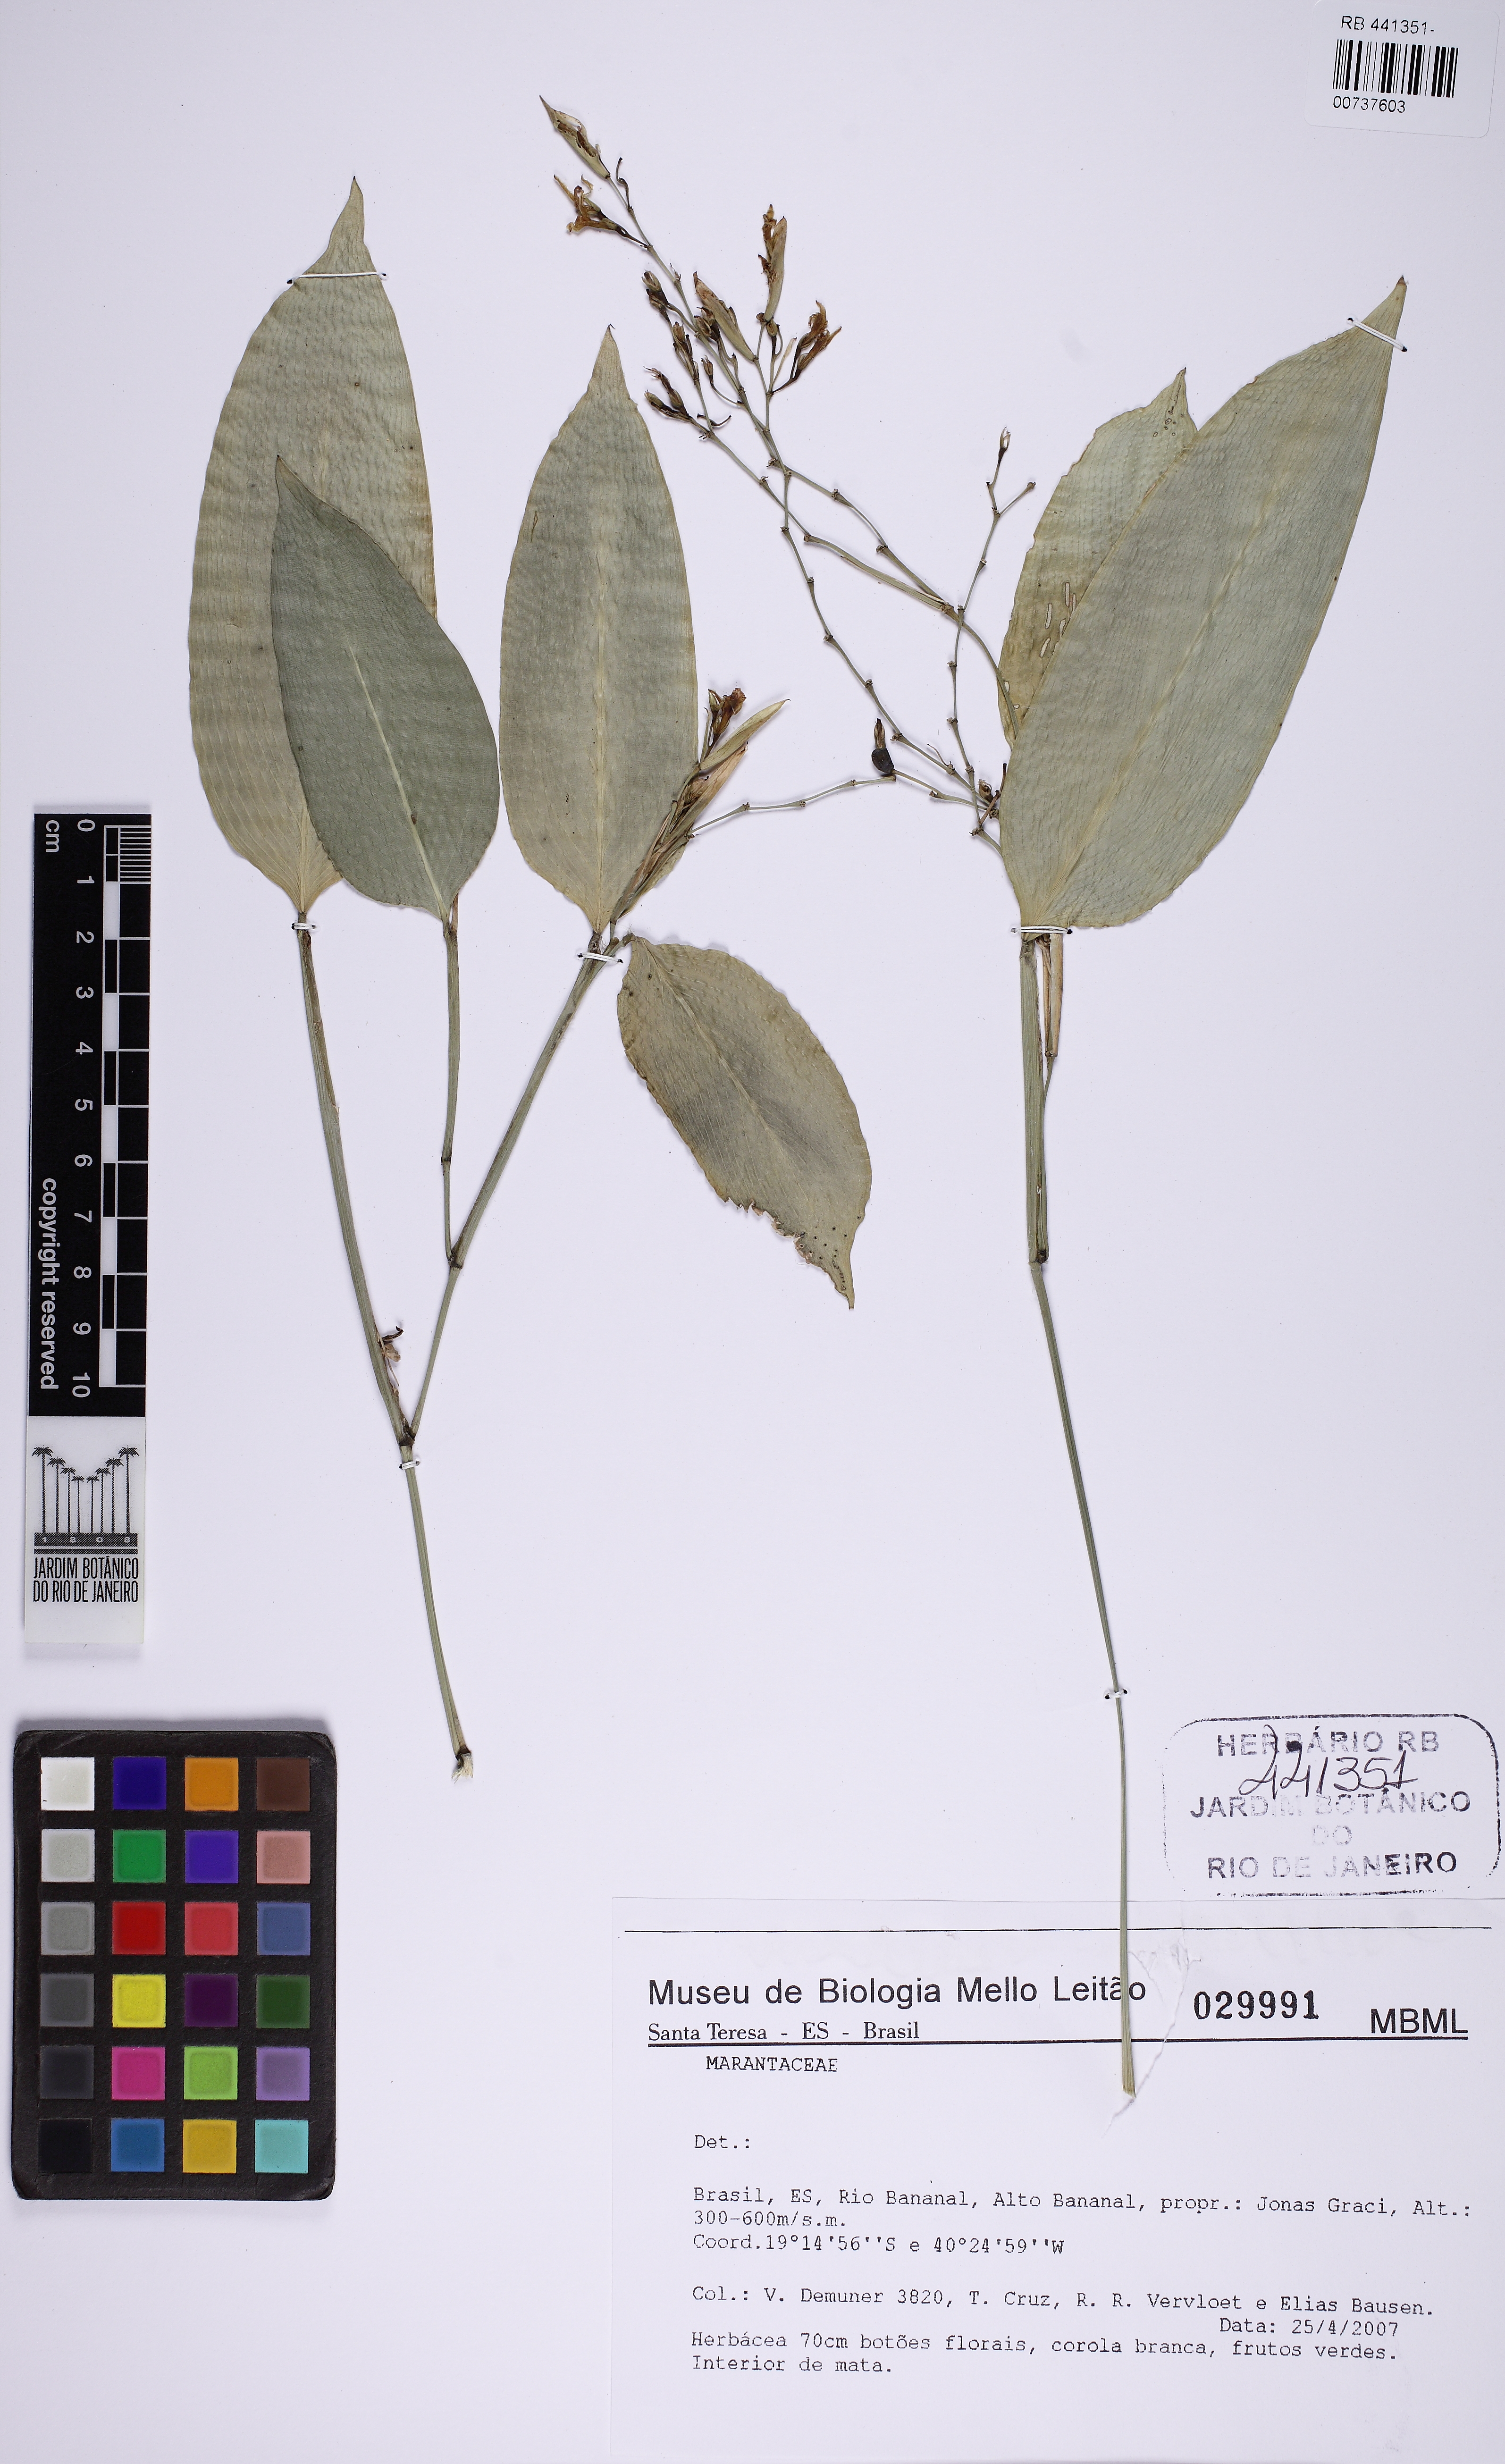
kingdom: Plantae
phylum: Tracheophyta
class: Liliopsida
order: Zingiberales
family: Marantaceae
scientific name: Marantaceae
